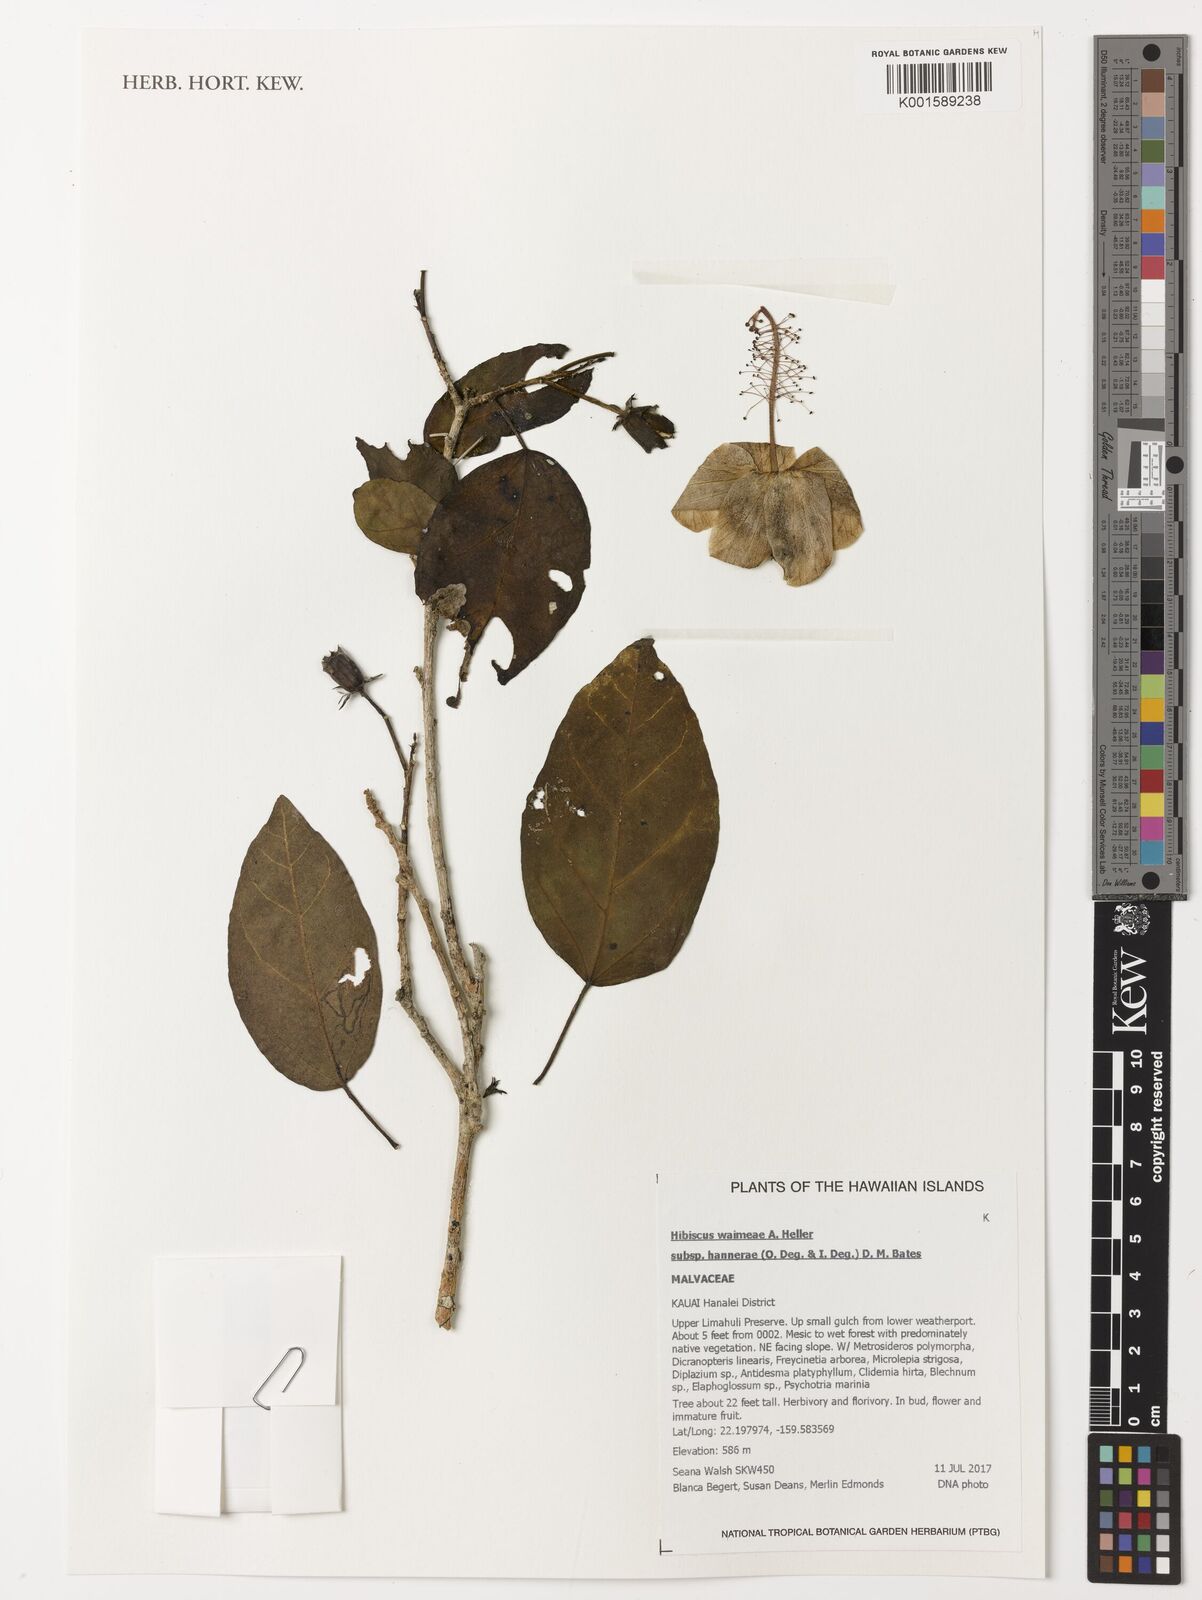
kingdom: Plantae
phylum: Tracheophyta
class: Magnoliopsida
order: Malvales
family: Malvaceae
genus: Hibiscus
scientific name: Hibiscus waimeae
